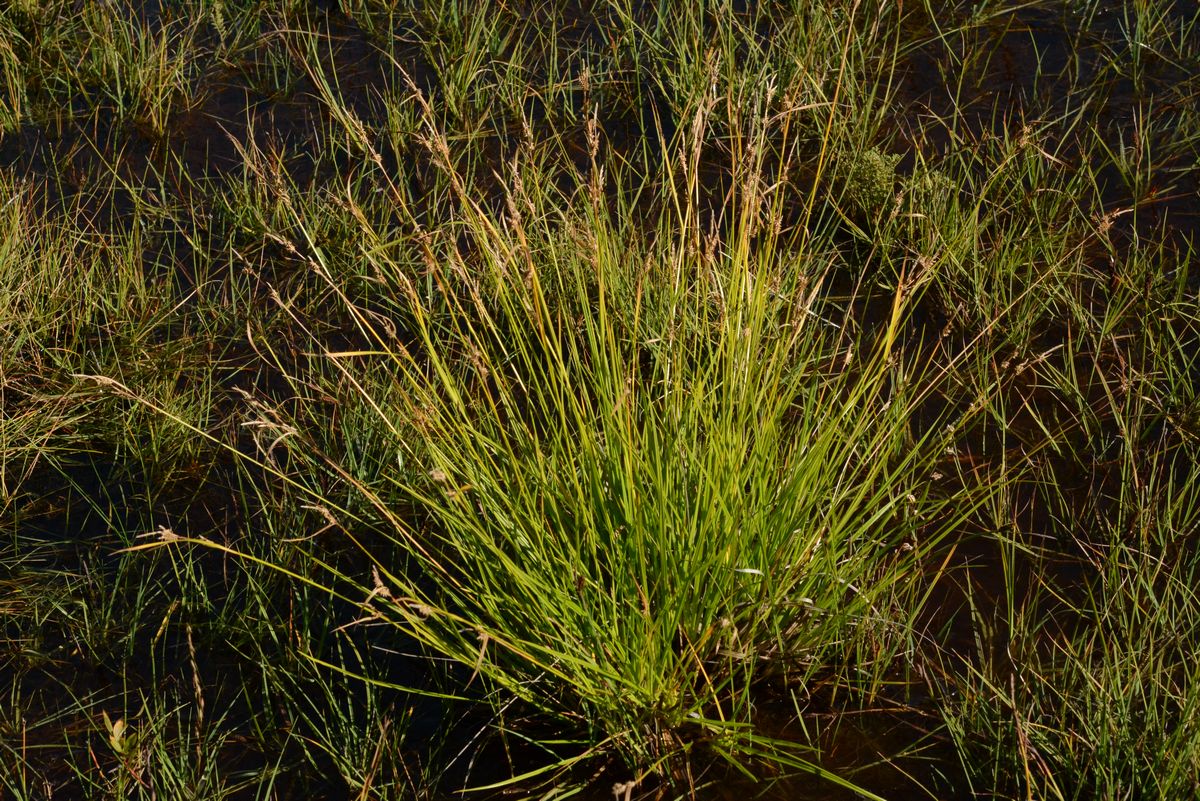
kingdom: Plantae
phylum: Tracheophyta
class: Liliopsida
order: Poales
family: Cyperaceae
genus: Carex
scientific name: Carex lepidocarpa
